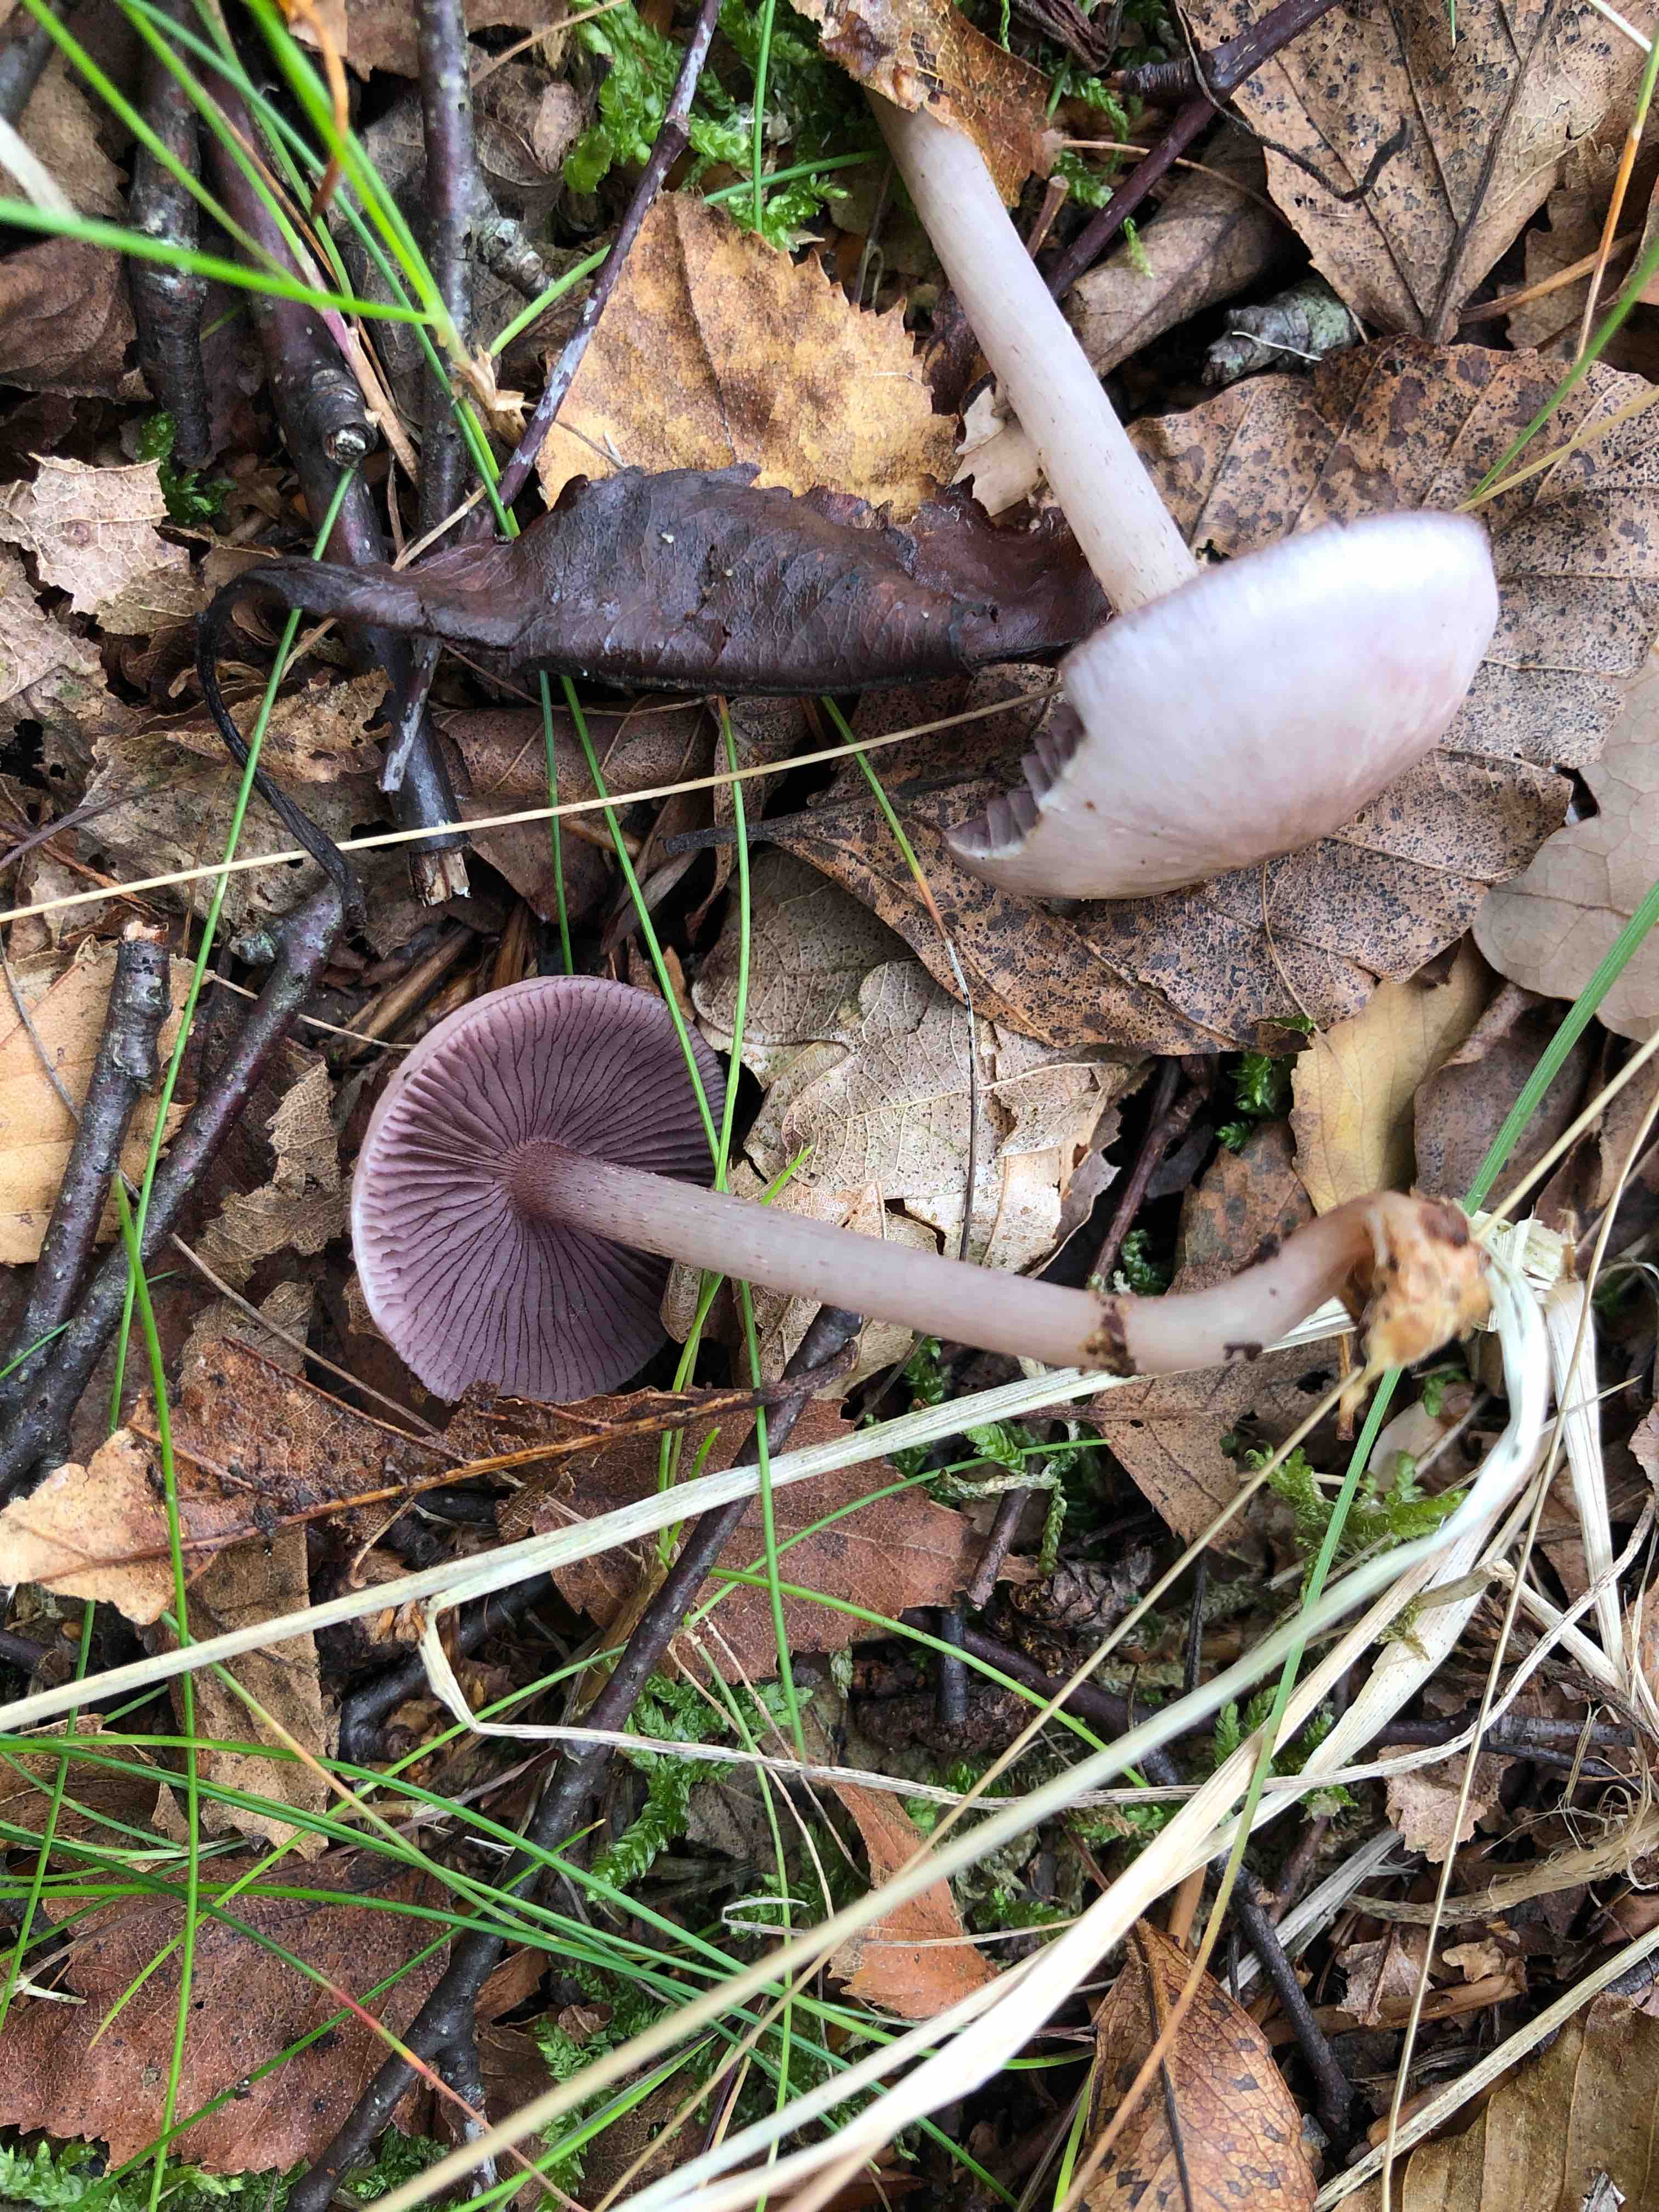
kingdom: Fungi
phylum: Basidiomycota
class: Agaricomycetes
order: Agaricales
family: Mycenaceae
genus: Mycena
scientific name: Mycena pelianthina
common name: mørkbladet huesvamp
